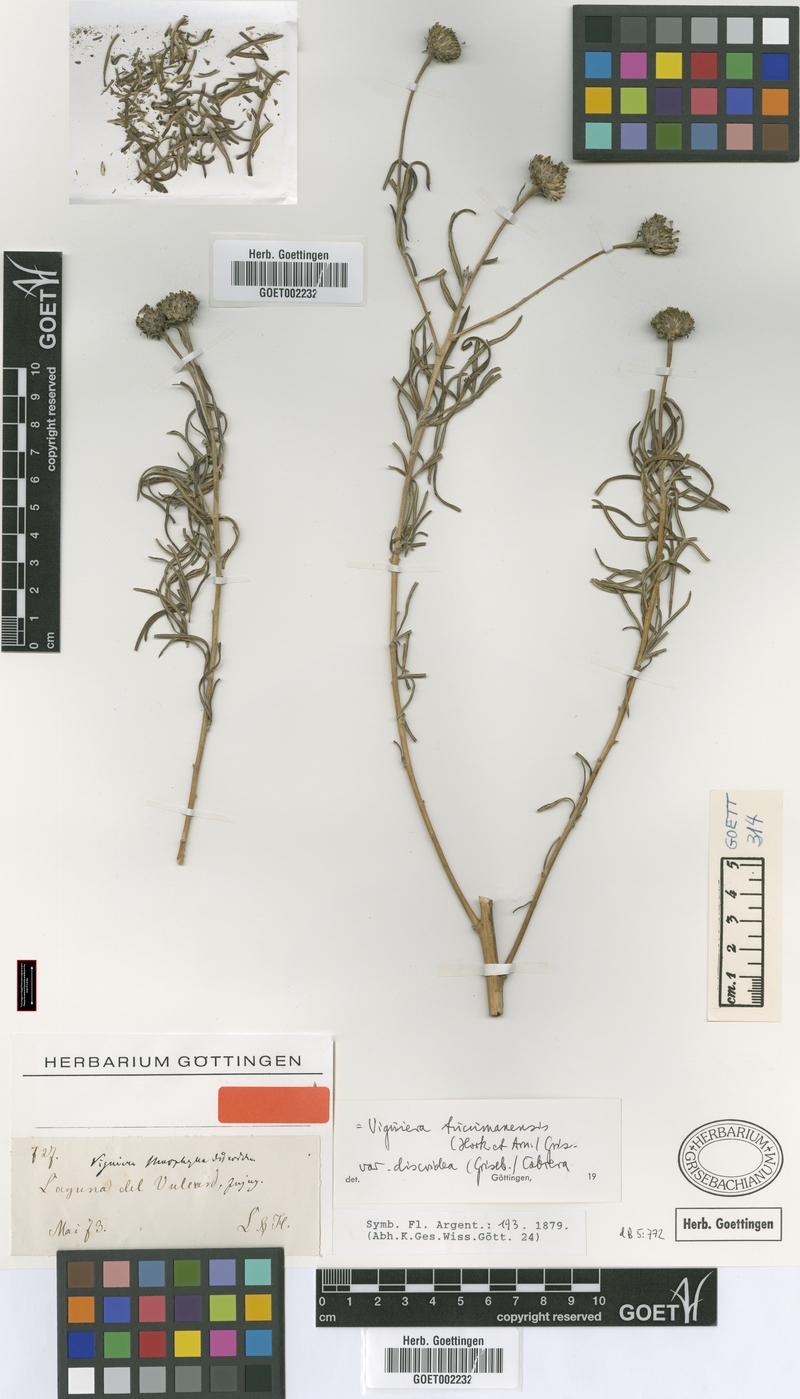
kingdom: Plantae
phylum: Tracheophyta
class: Magnoliopsida
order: Asterales
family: Asteraceae
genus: Aldama
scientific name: Aldama tucumanensis
